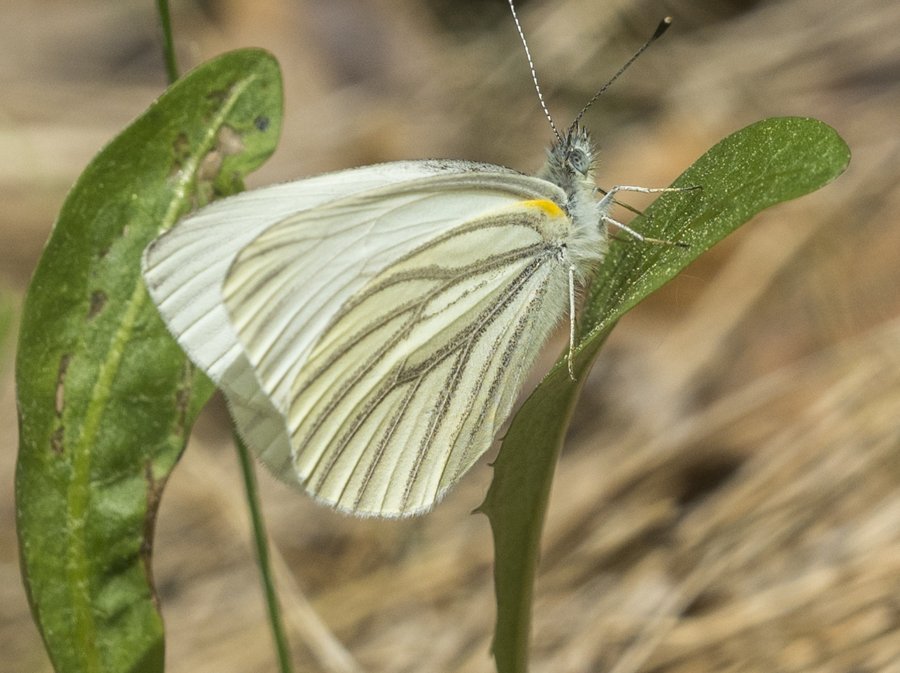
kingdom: Animalia
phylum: Arthropoda
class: Insecta
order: Lepidoptera
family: Pieridae
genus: Pieris
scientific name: Pieris oleracea
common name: Mustard White
